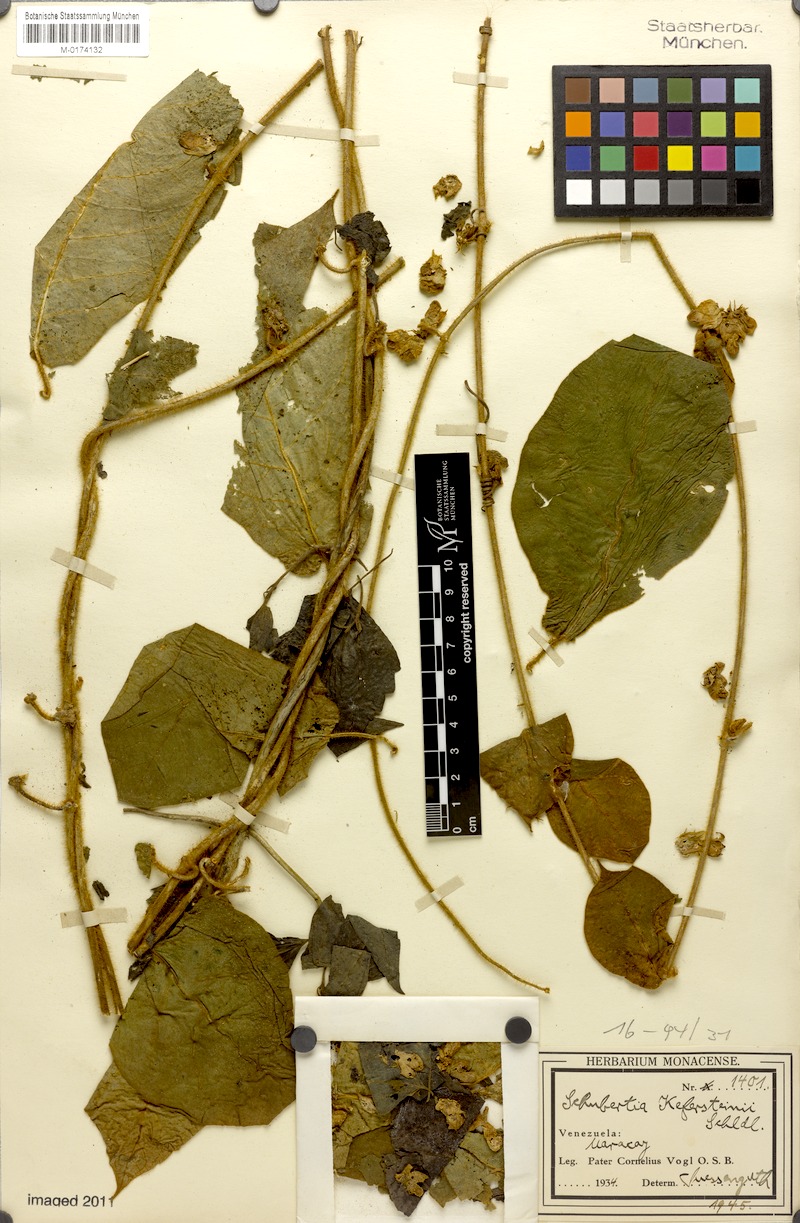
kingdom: Plantae
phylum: Tracheophyta
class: Magnoliopsida
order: Gentianales
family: Apocynaceae
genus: Schubertia
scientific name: Schubertia kefersteinii
